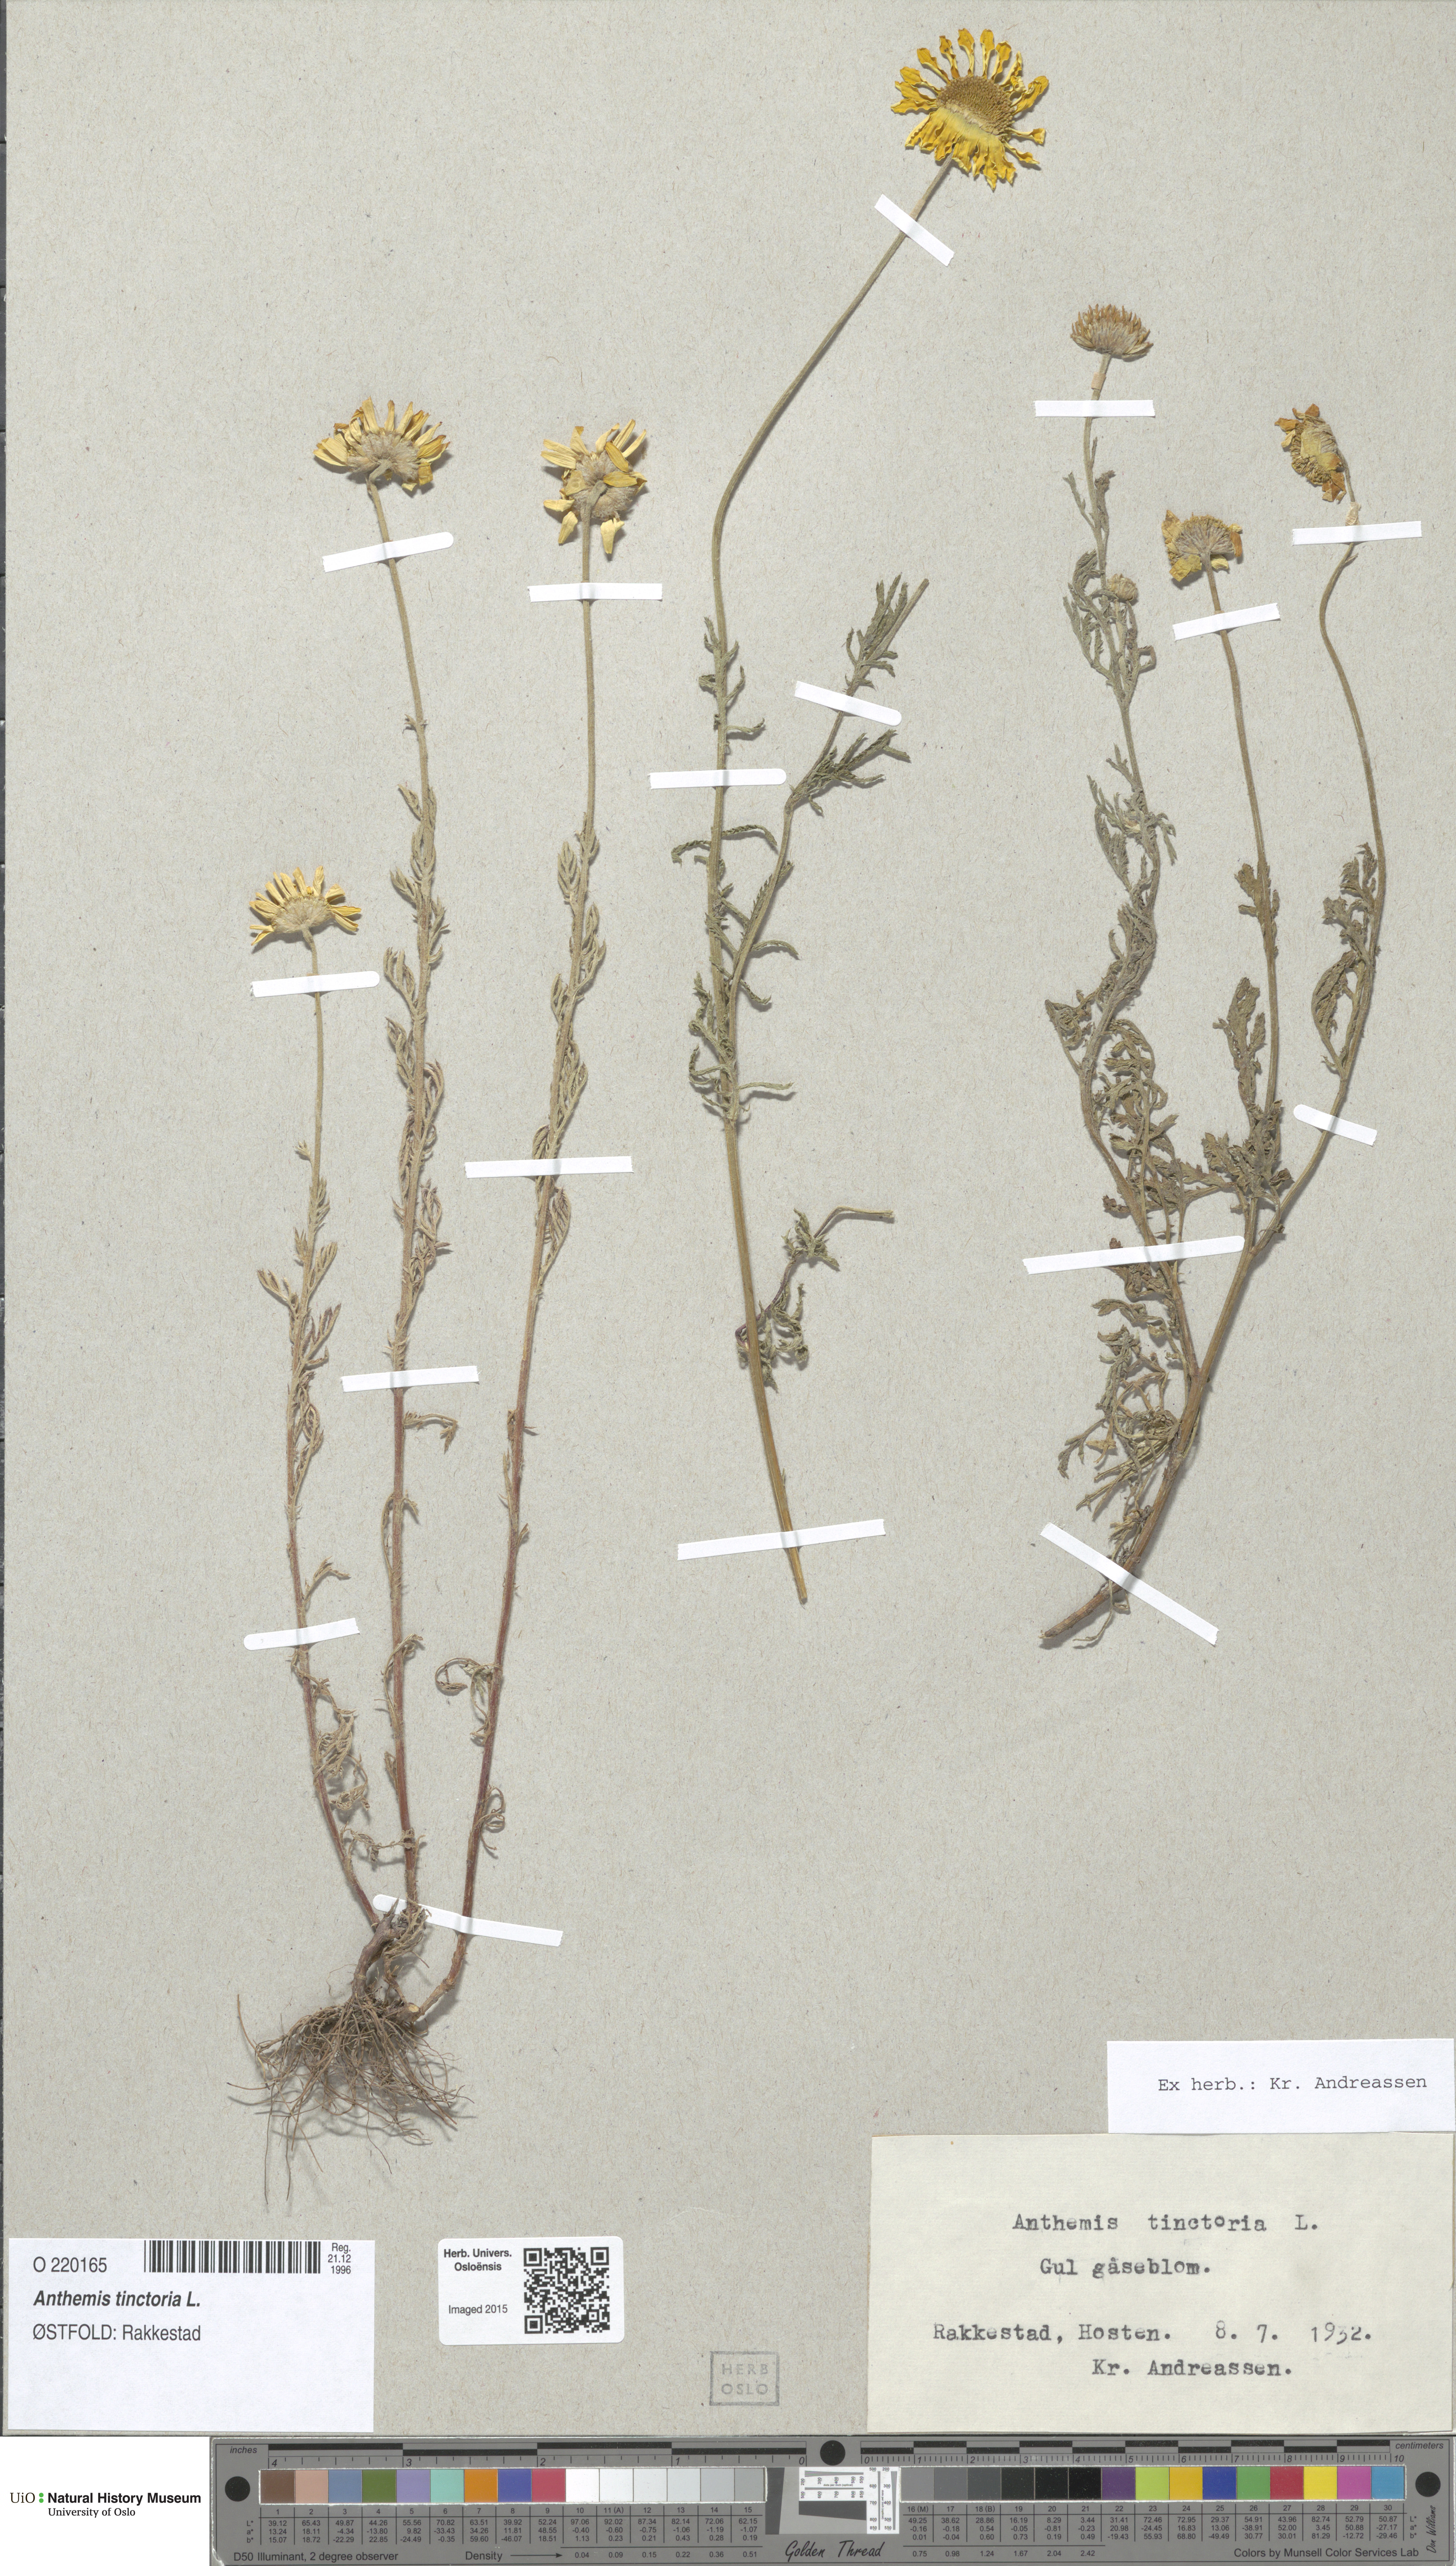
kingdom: Plantae
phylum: Tracheophyta
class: Magnoliopsida
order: Asterales
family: Asteraceae
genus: Cota
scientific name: Cota tinctoria
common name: Golden chamomile
